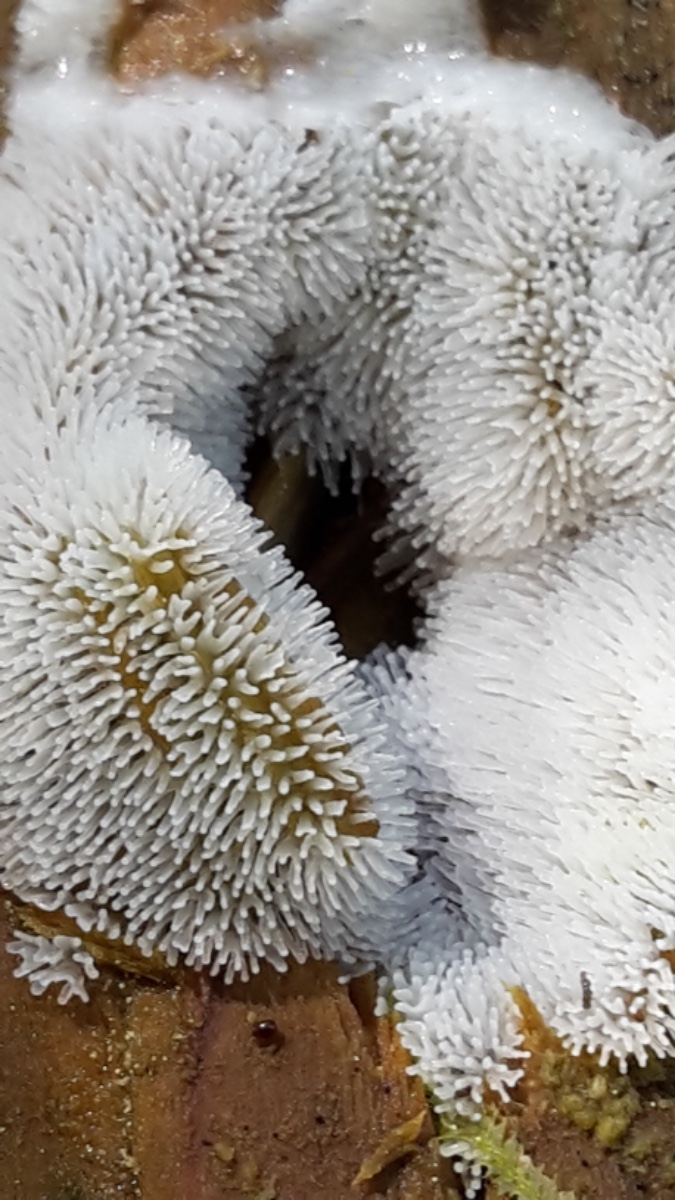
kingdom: Protozoa
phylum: Mycetozoa
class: Protosteliomycetes
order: Ceratiomyxales
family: Ceratiomyxaceae
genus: Ceratiomyxa
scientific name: Ceratiomyxa fruticulosa
